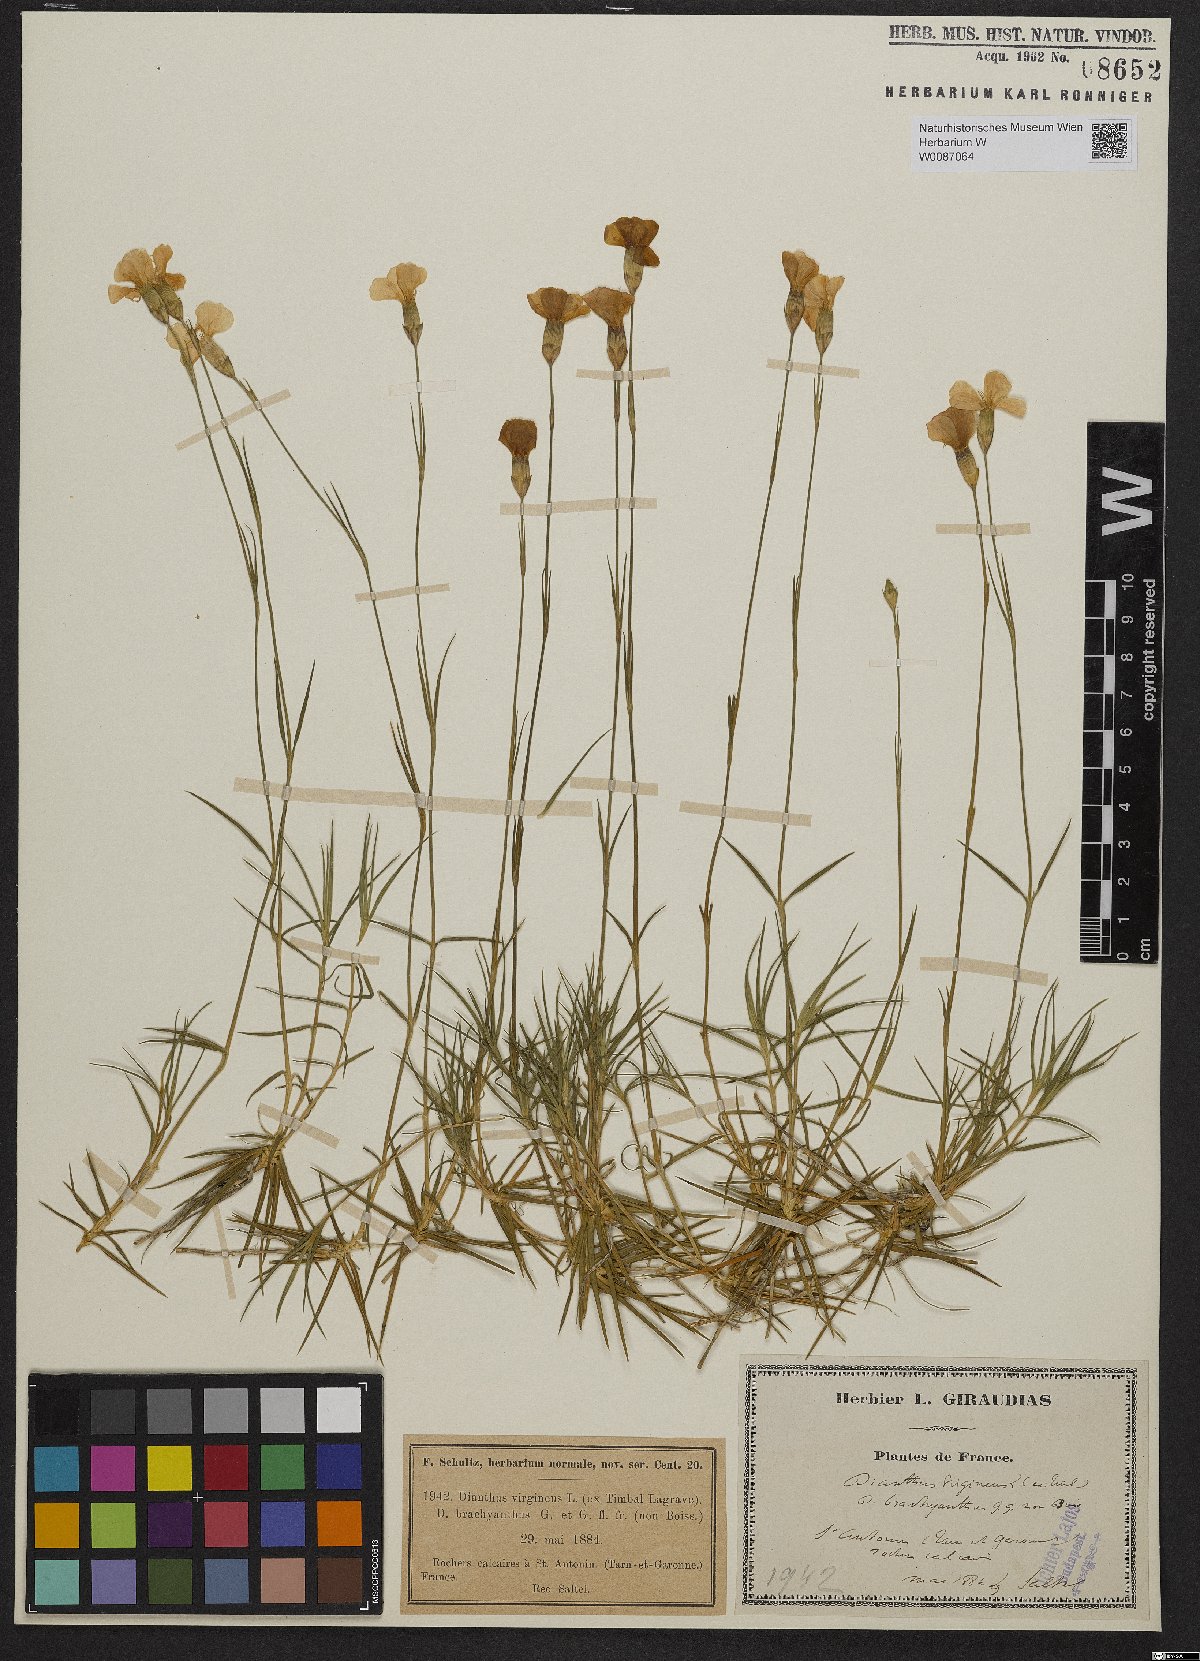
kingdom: Plantae
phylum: Tracheophyta
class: Magnoliopsida
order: Caryophyllales
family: Caryophyllaceae
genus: Dianthus
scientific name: Dianthus virgineus
